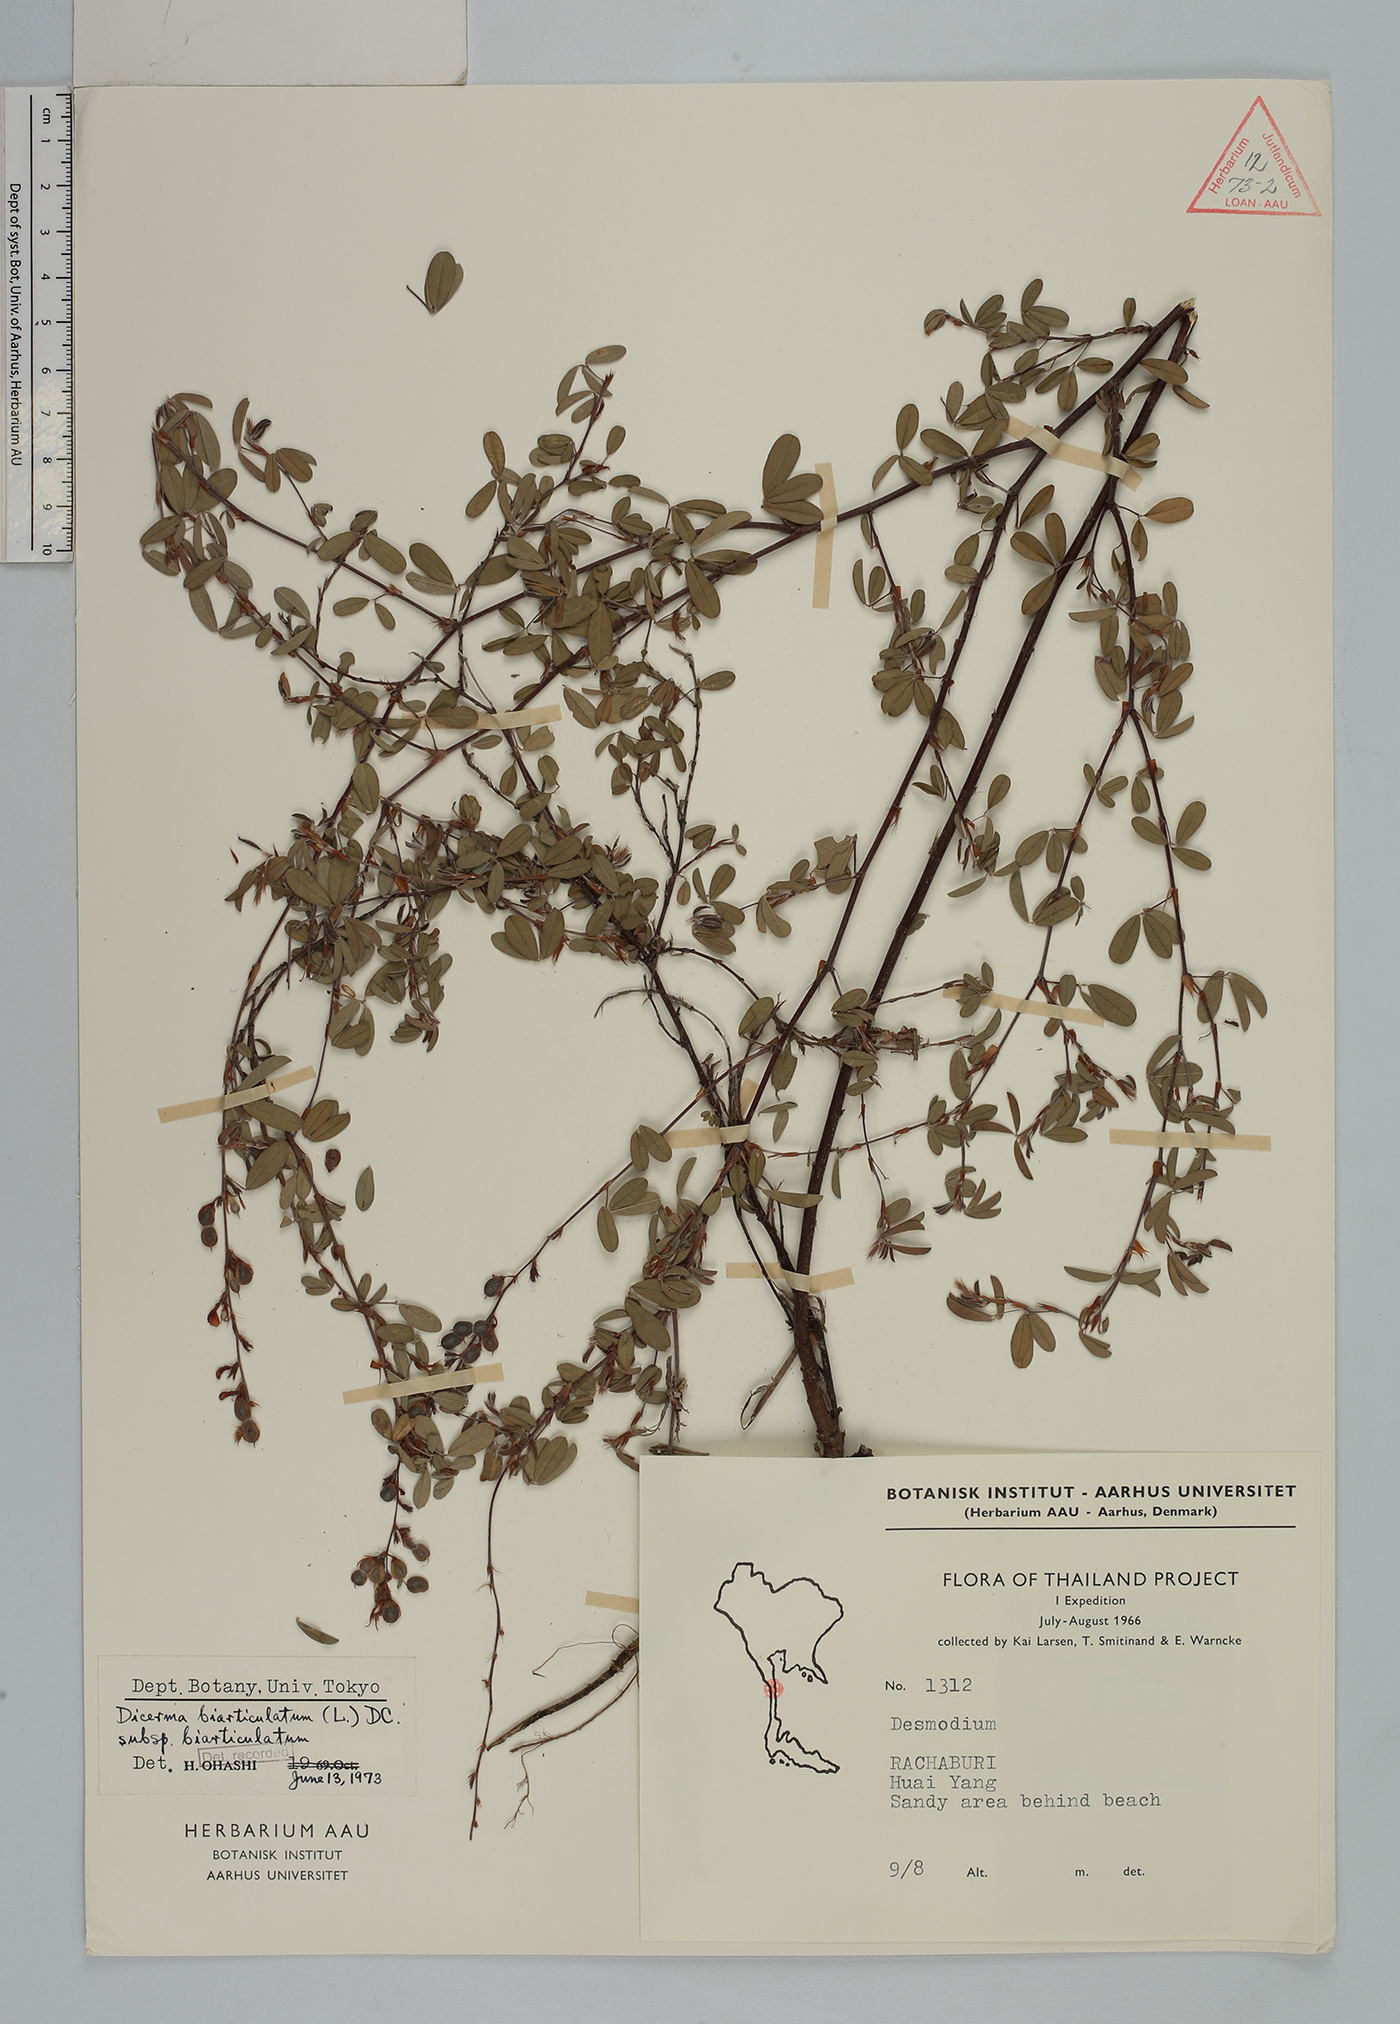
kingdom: Plantae
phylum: Tracheophyta
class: Magnoliopsida
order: Fabales
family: Fabaceae
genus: Aphyllodium
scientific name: Aphyllodium biarticulatum
